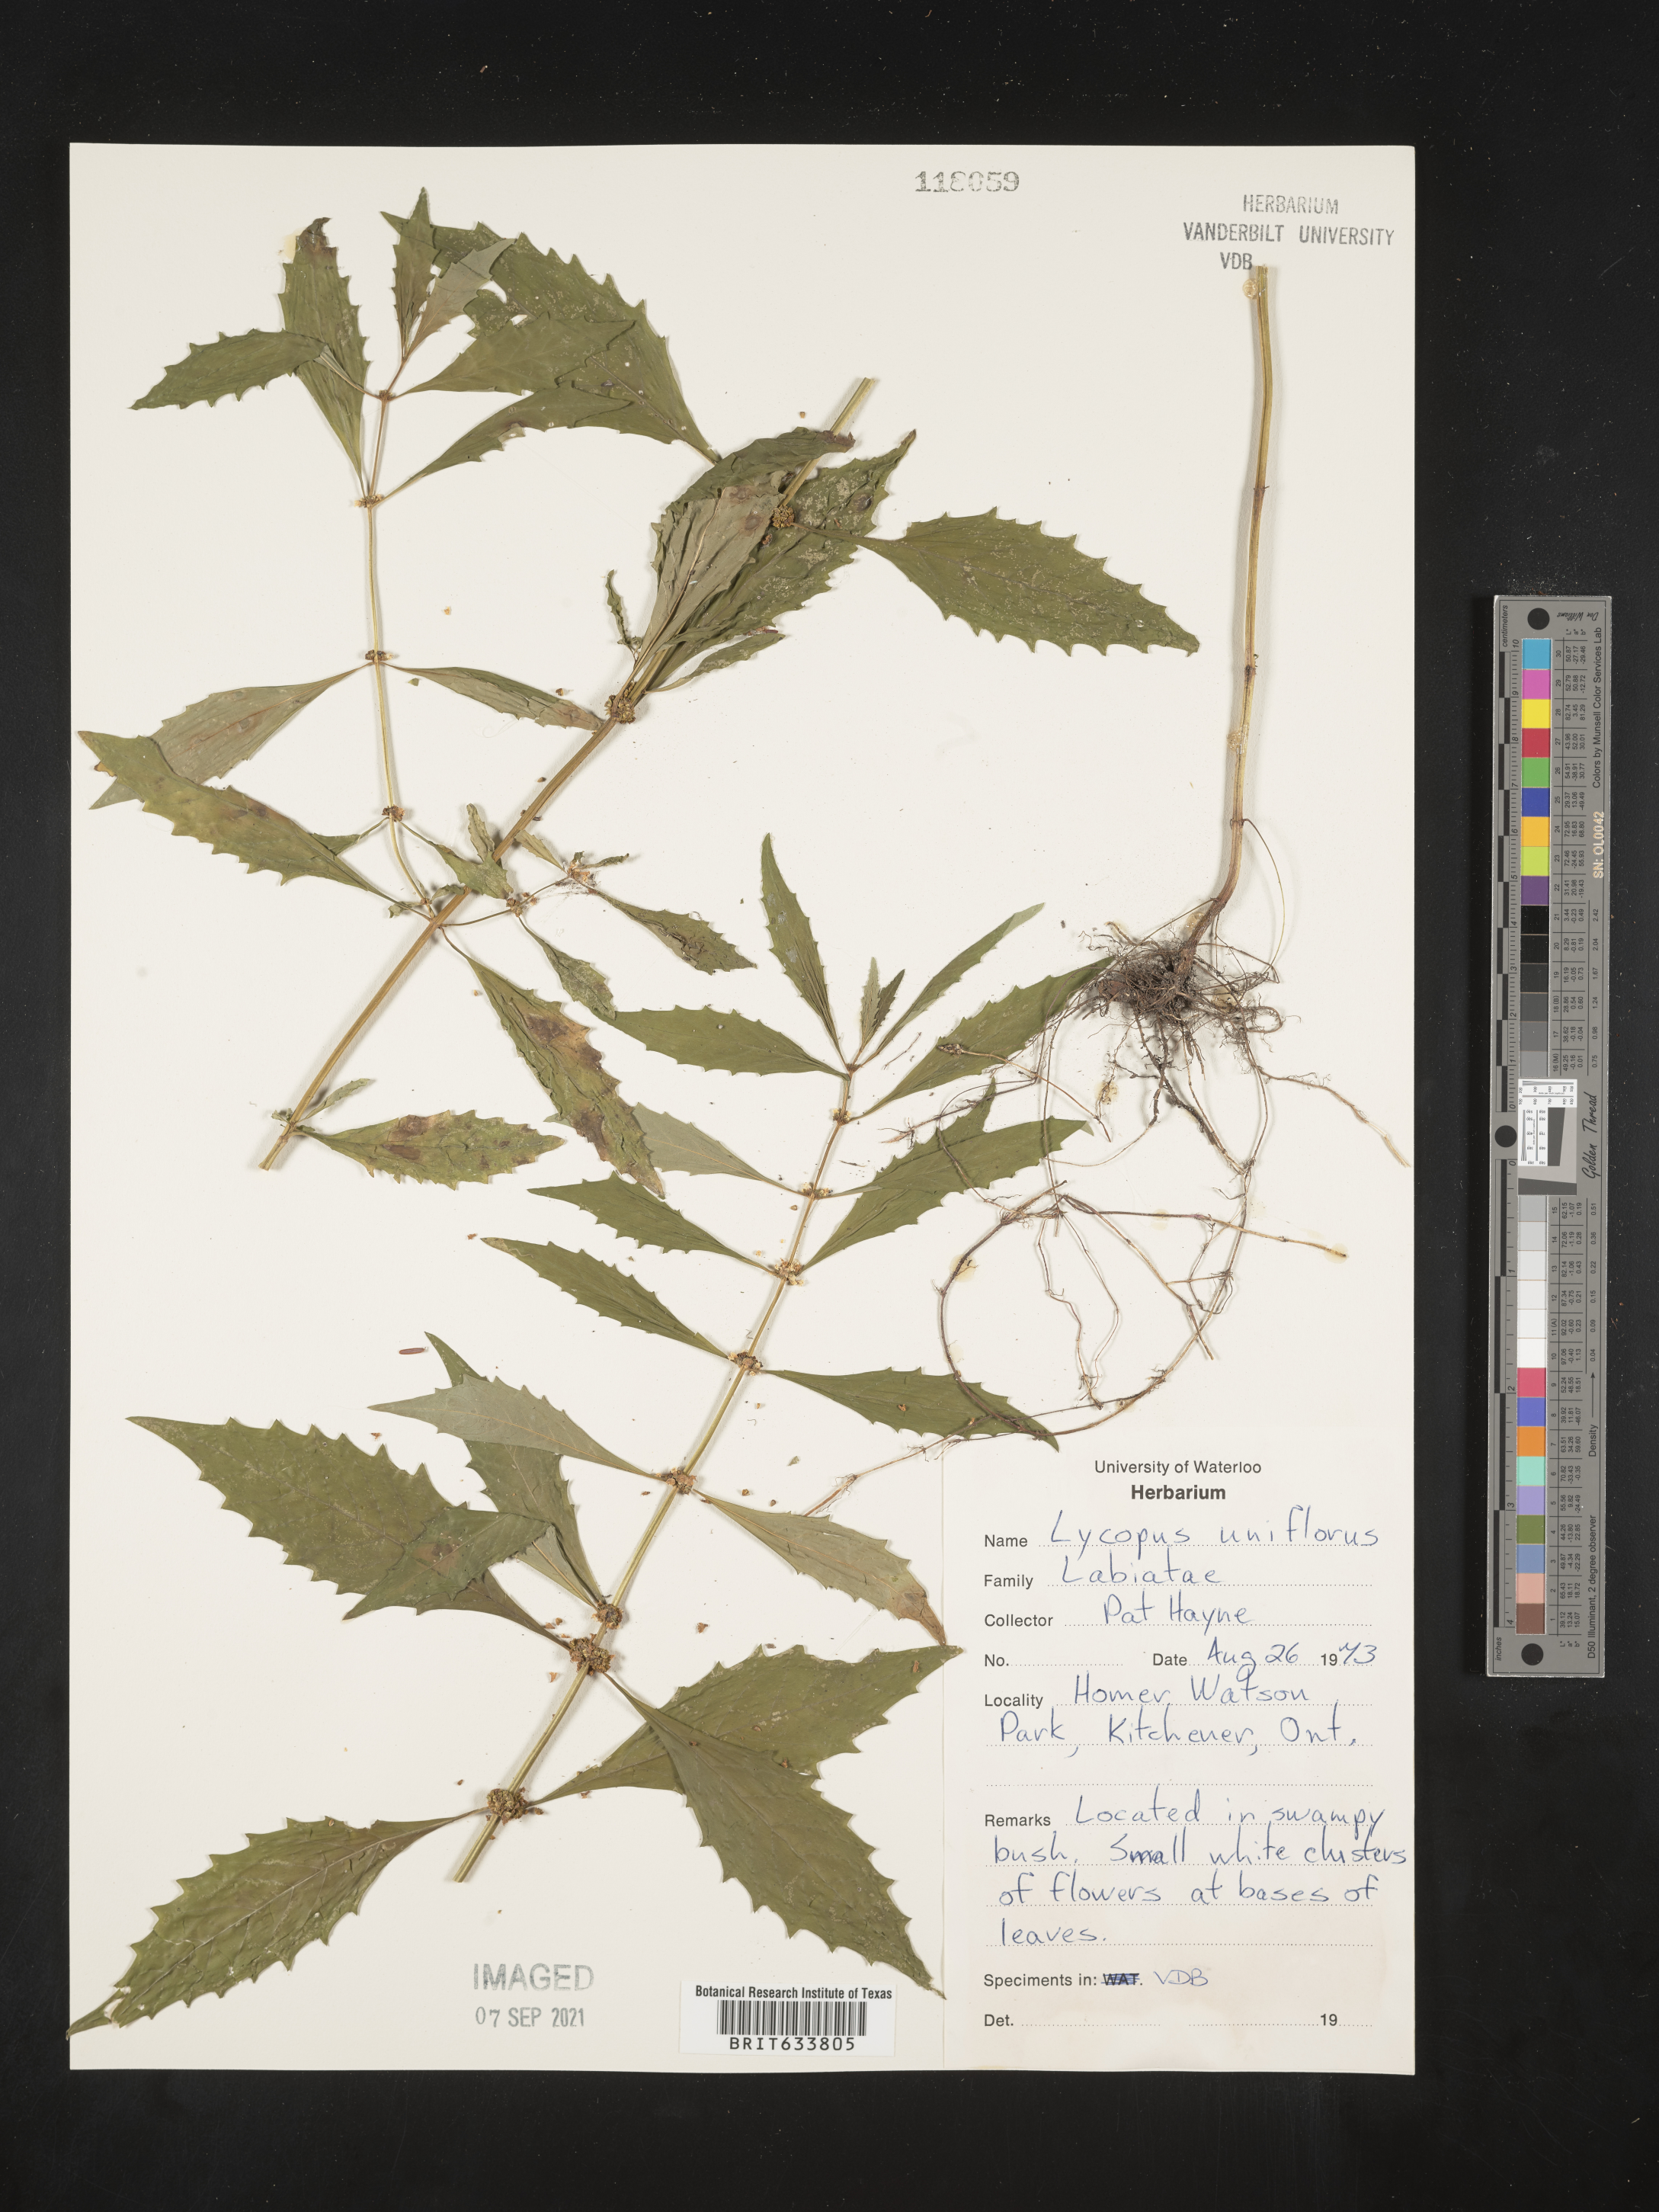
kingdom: Plantae
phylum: Tracheophyta
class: Magnoliopsida
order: Lamiales
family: Lamiaceae
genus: Lycopus
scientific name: Lycopus
